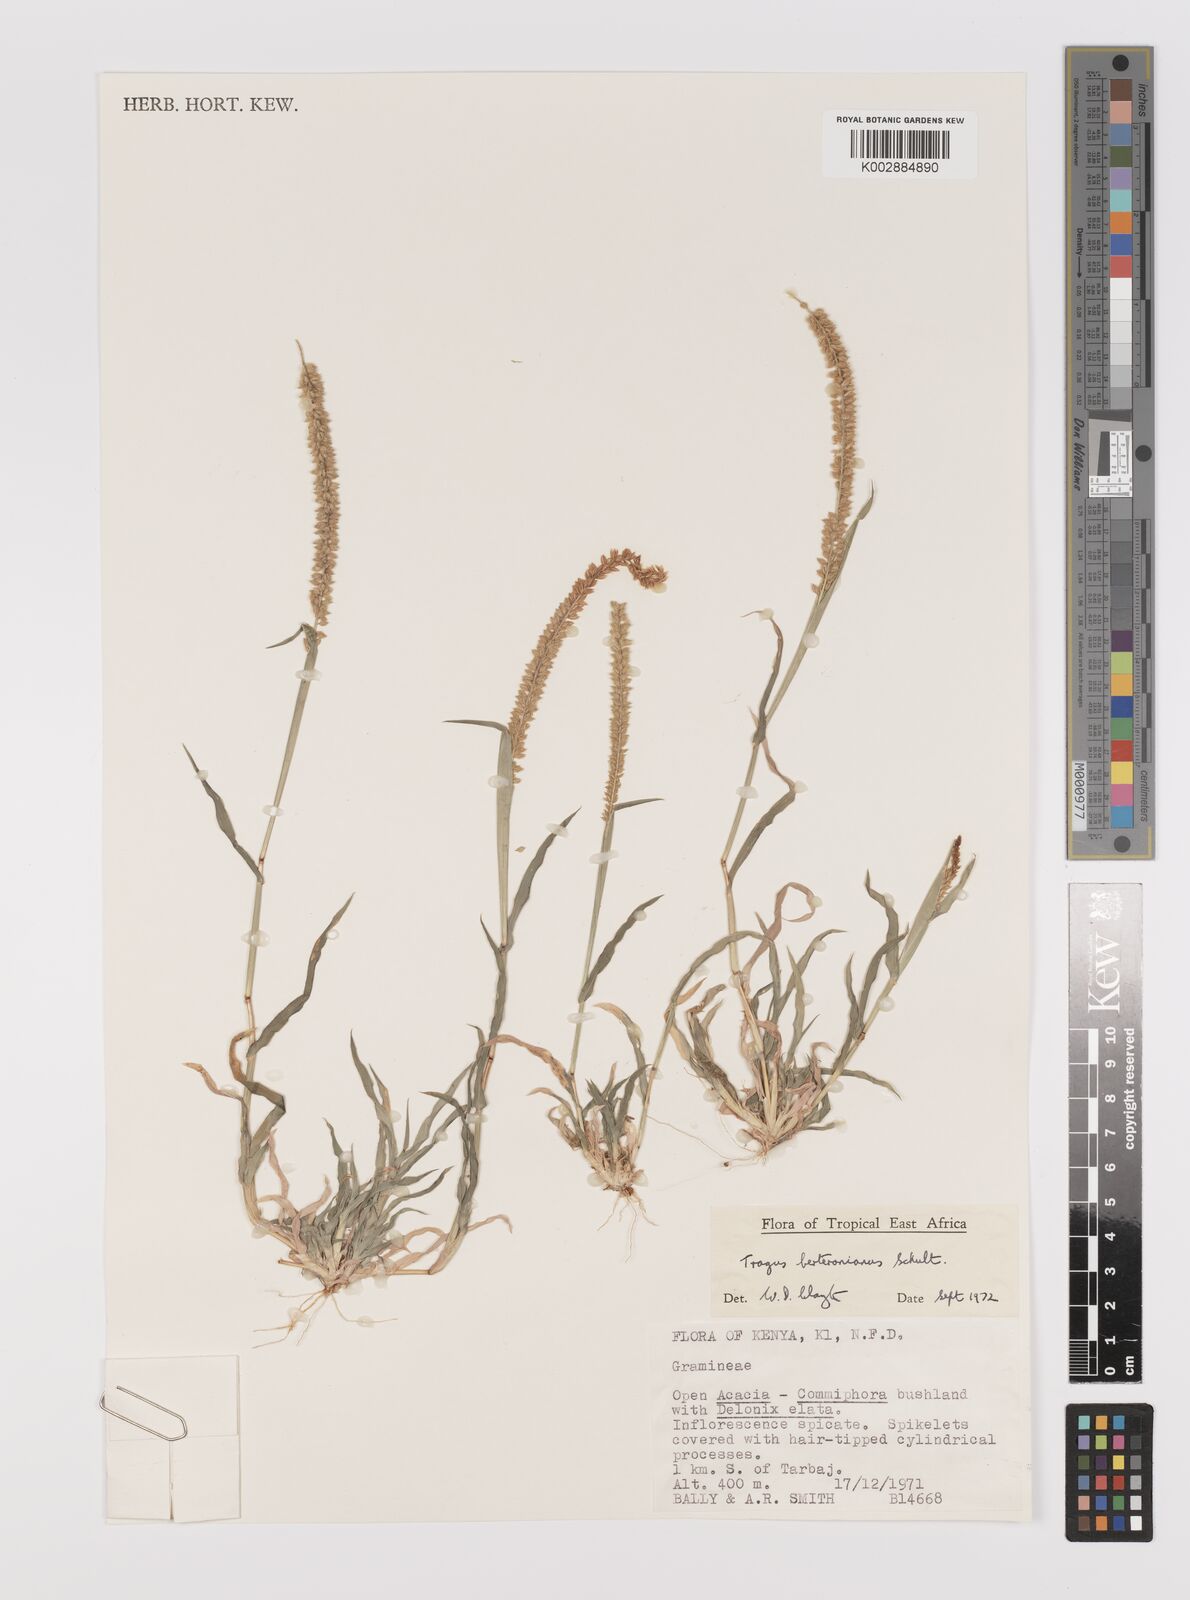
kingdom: Plantae
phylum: Tracheophyta
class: Liliopsida
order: Poales
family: Poaceae
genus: Tragus
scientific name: Tragus berteronianus
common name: African bur-grass
